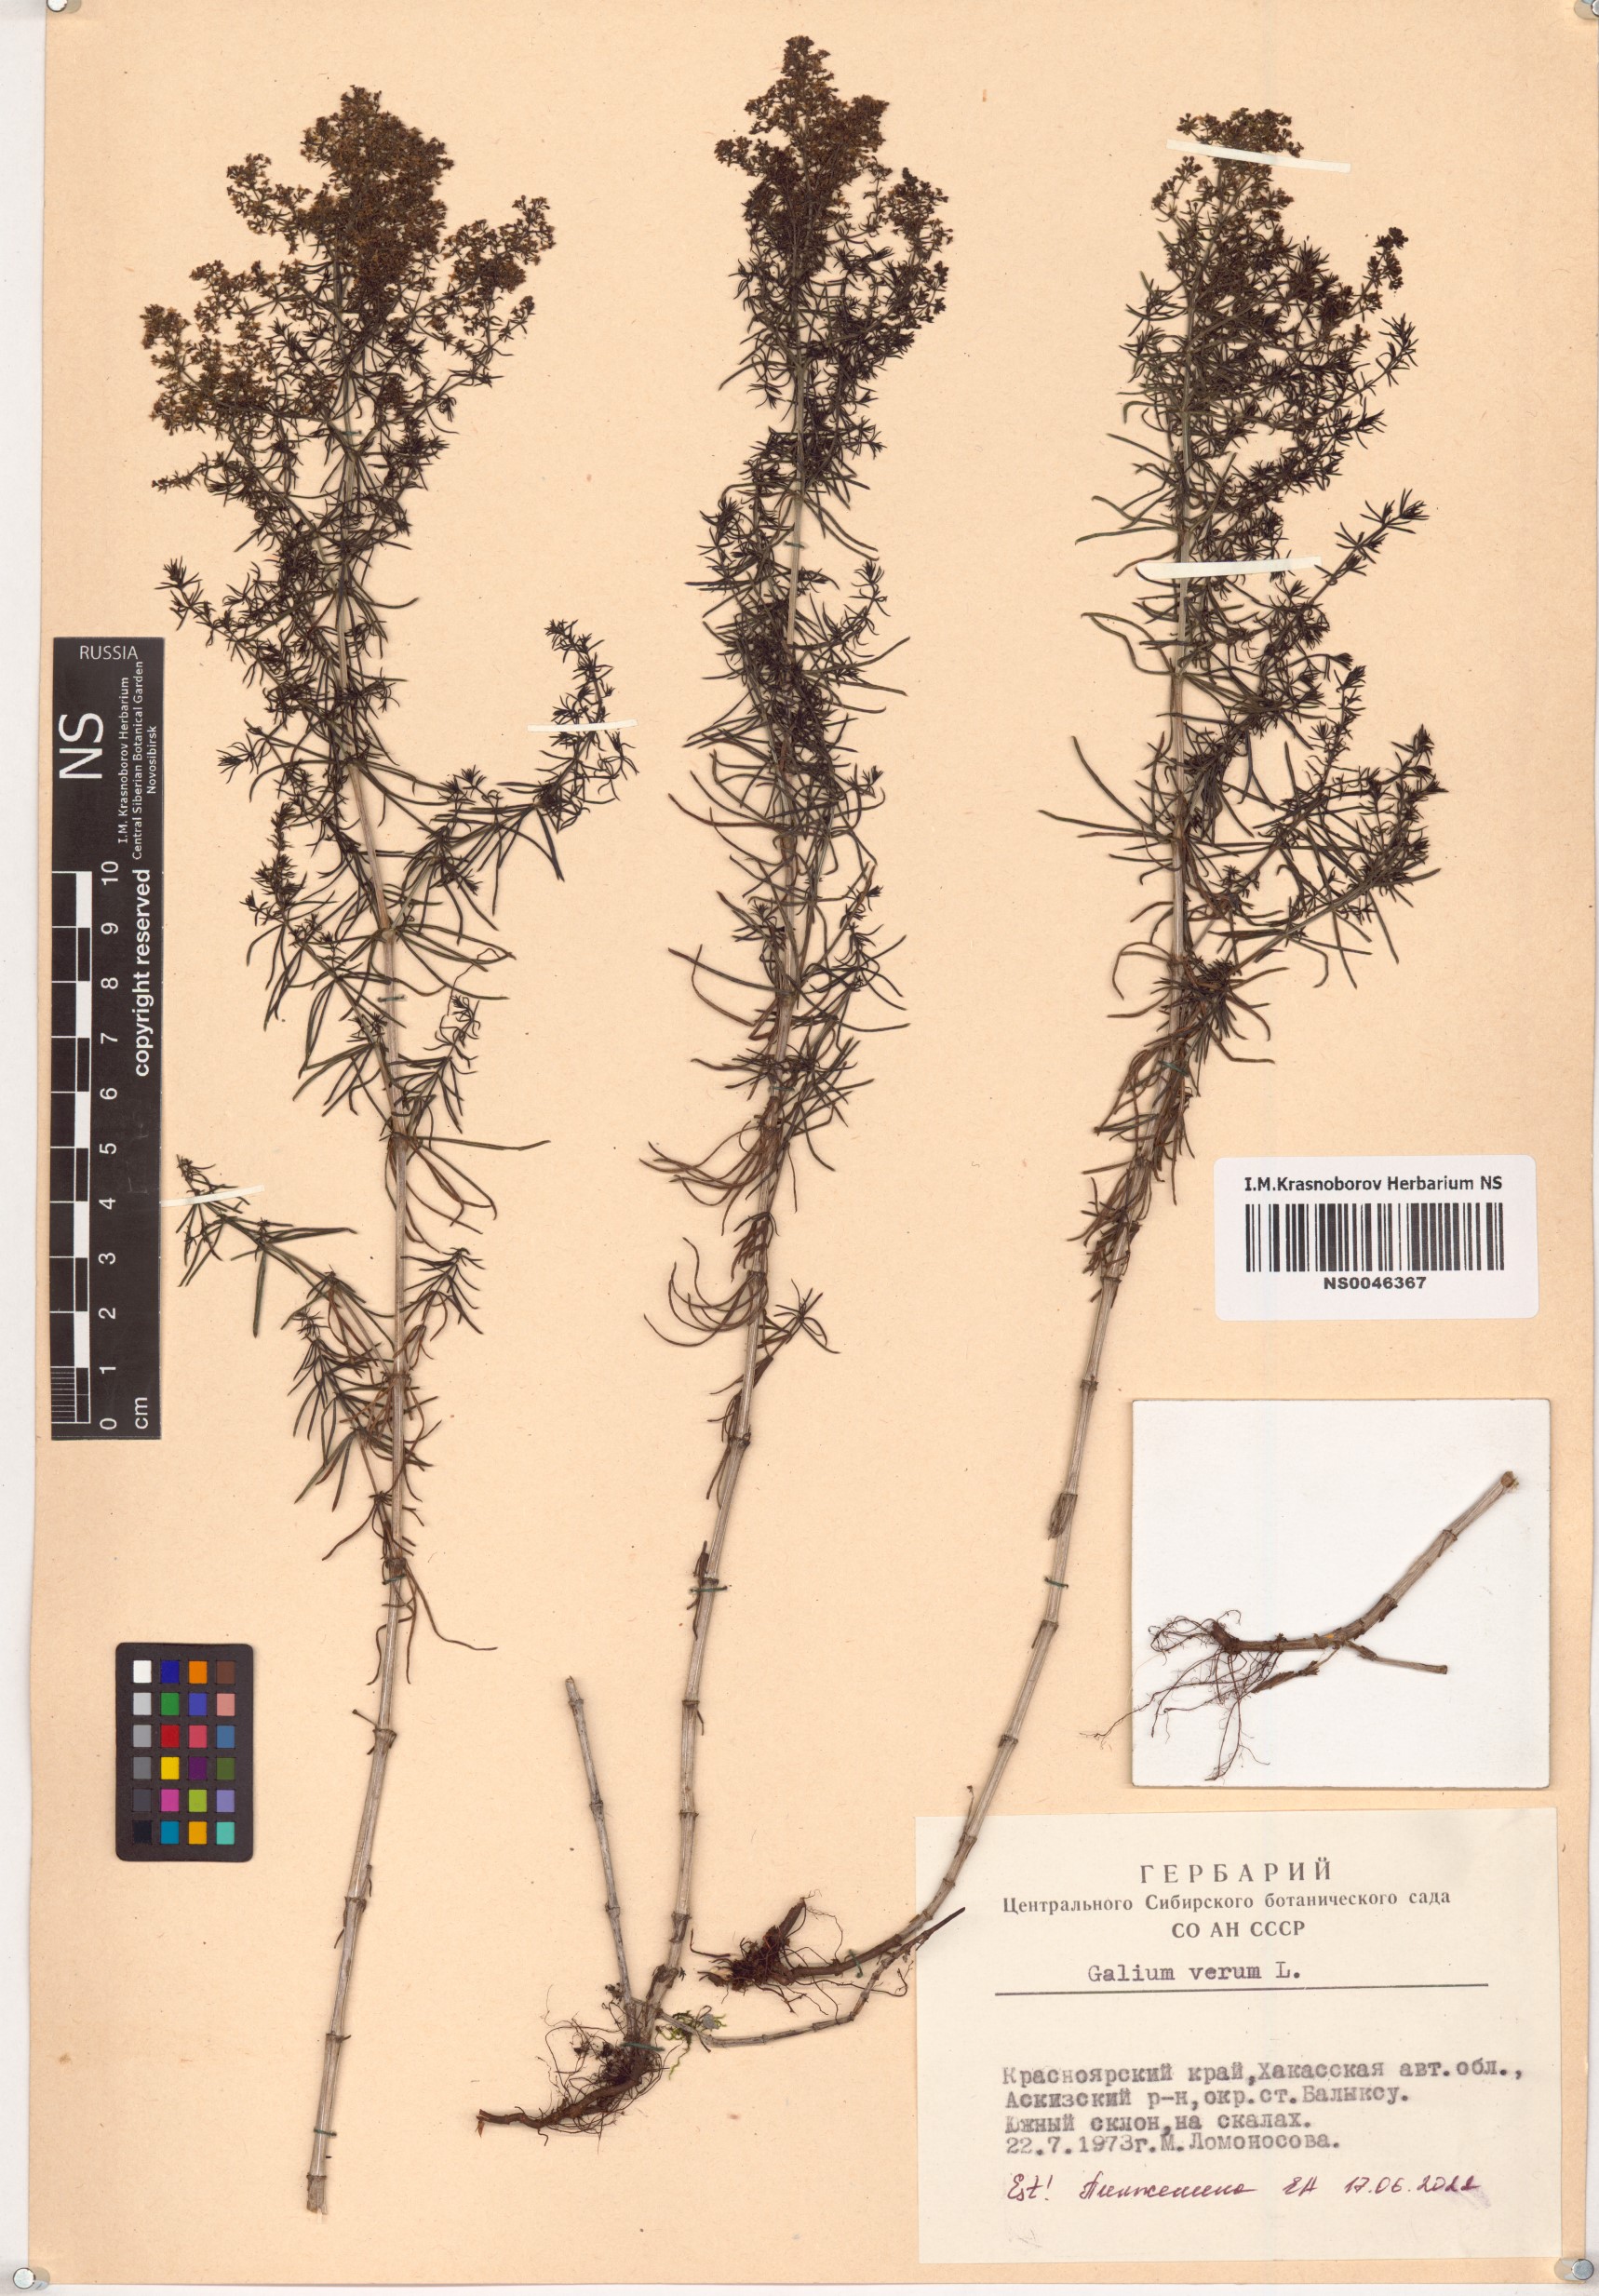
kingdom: Plantae
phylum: Tracheophyta
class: Magnoliopsida
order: Gentianales
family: Rubiaceae
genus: Galium
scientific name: Galium verum
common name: Lady's bedstraw
